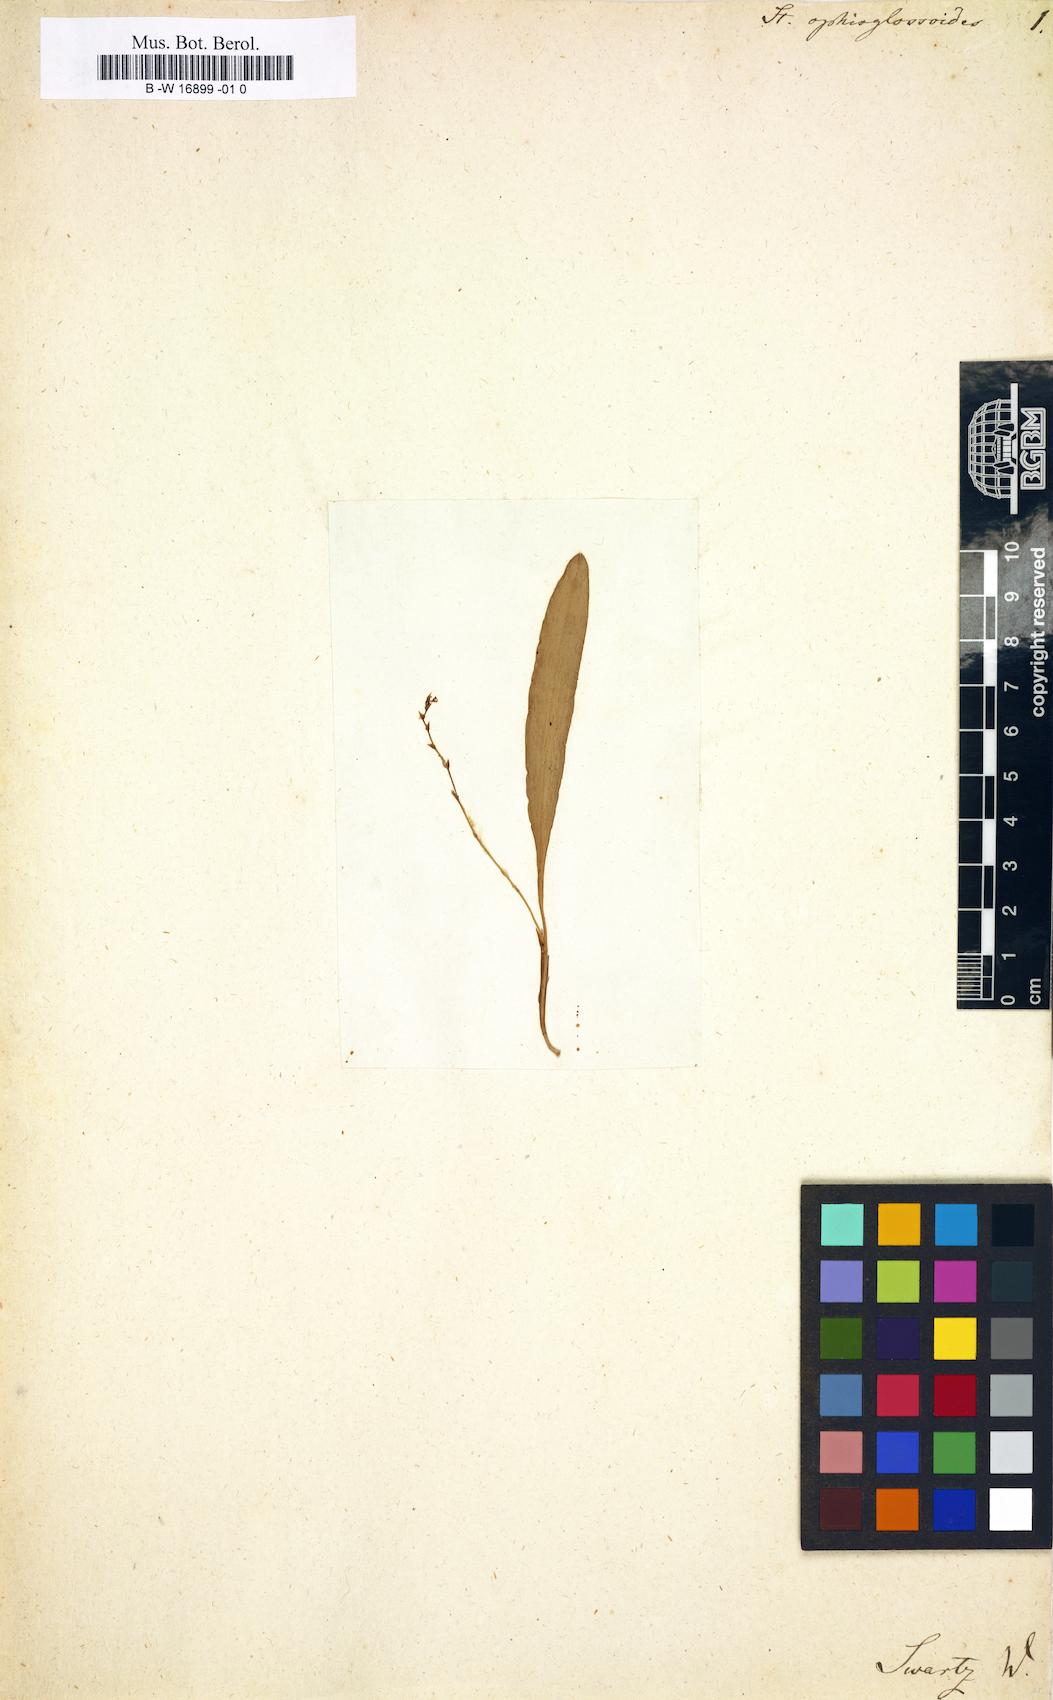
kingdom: Plantae
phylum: Tracheophyta
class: Liliopsida
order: Asparagales
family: Orchidaceae
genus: Stelis
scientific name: Stelis ophioglossoides
